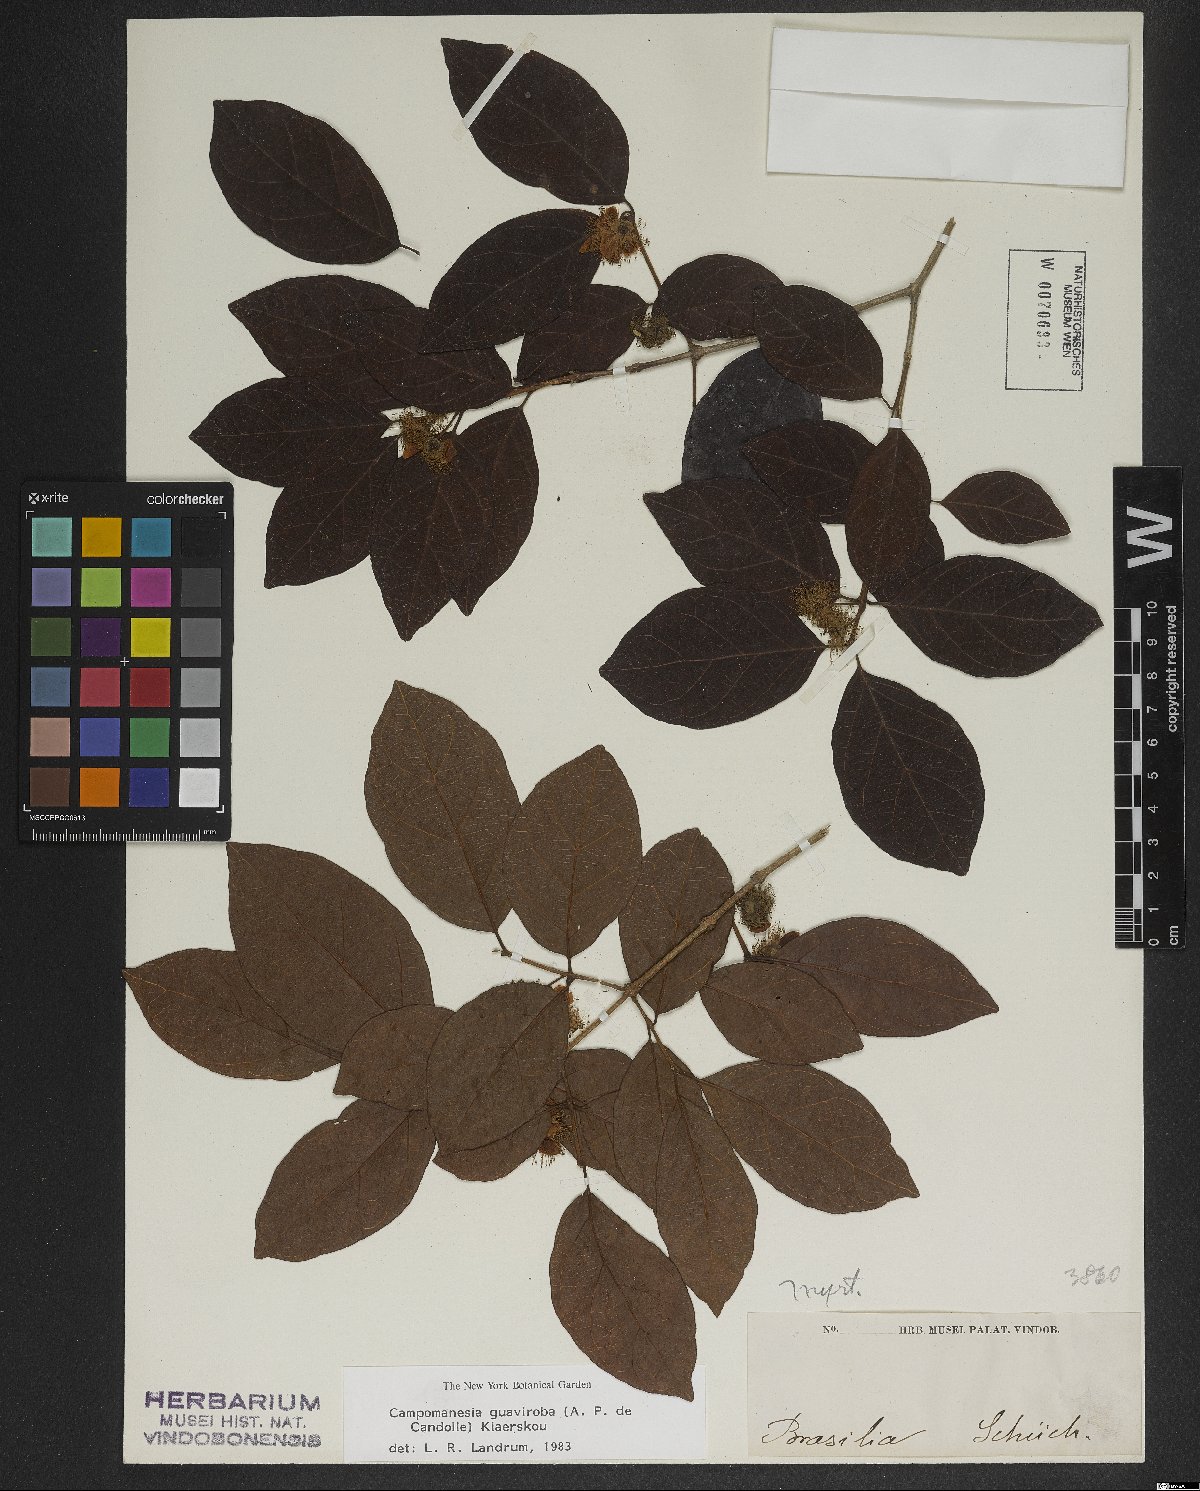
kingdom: Plantae
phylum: Tracheophyta
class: Magnoliopsida
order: Myrtales
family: Myrtaceae
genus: Campomanesia
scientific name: Campomanesia guaviroba
